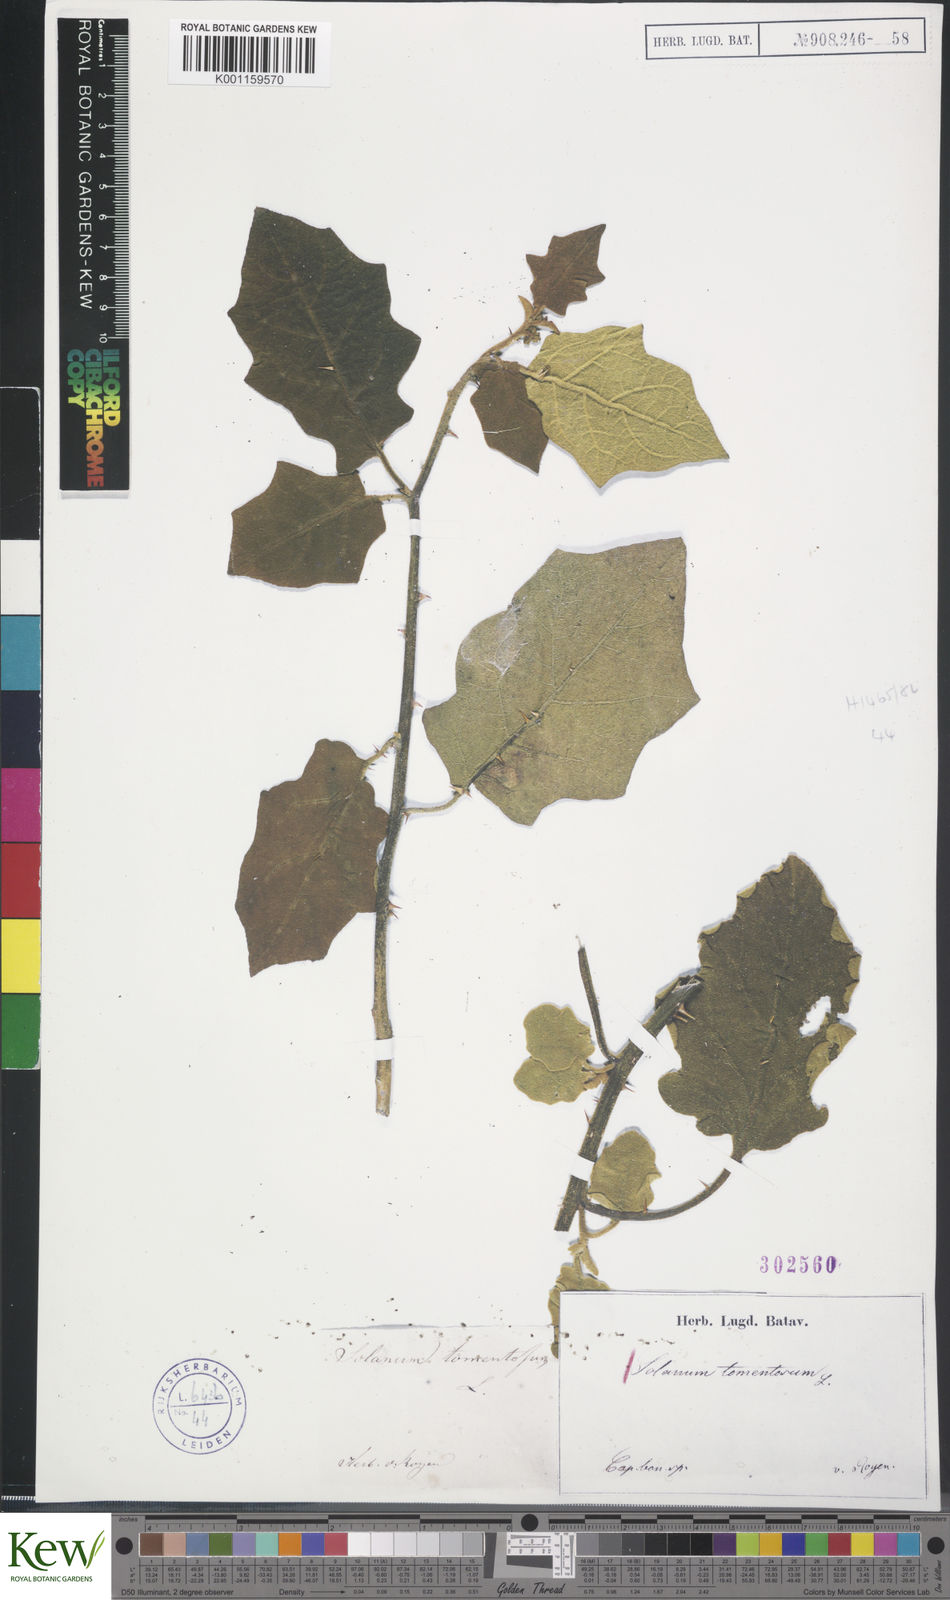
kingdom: Plantae
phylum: Tracheophyta
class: Magnoliopsida
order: Solanales
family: Solanaceae
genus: Solanum
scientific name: Solanum tomentosum
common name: Wild aubergine
